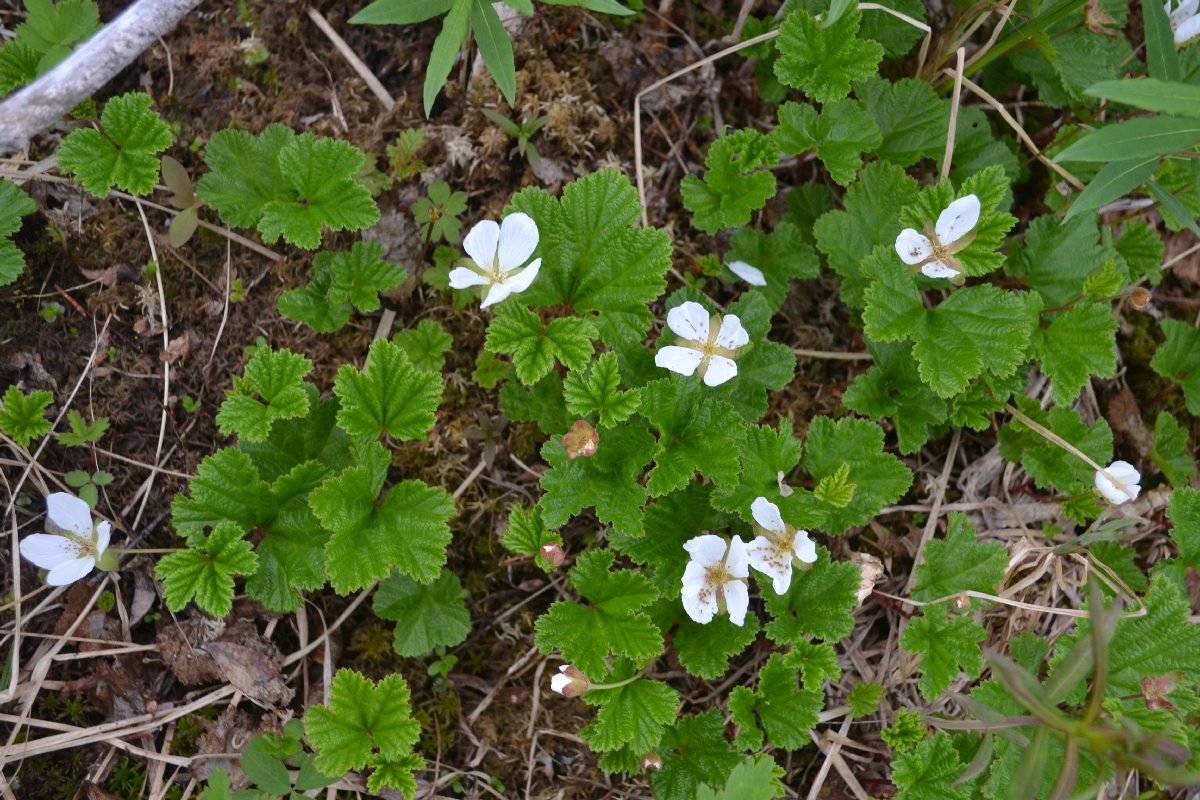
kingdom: Plantae
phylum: Tracheophyta
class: Magnoliopsida
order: Rosales
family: Rosaceae
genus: Rubus
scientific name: Rubus chamaemorus
